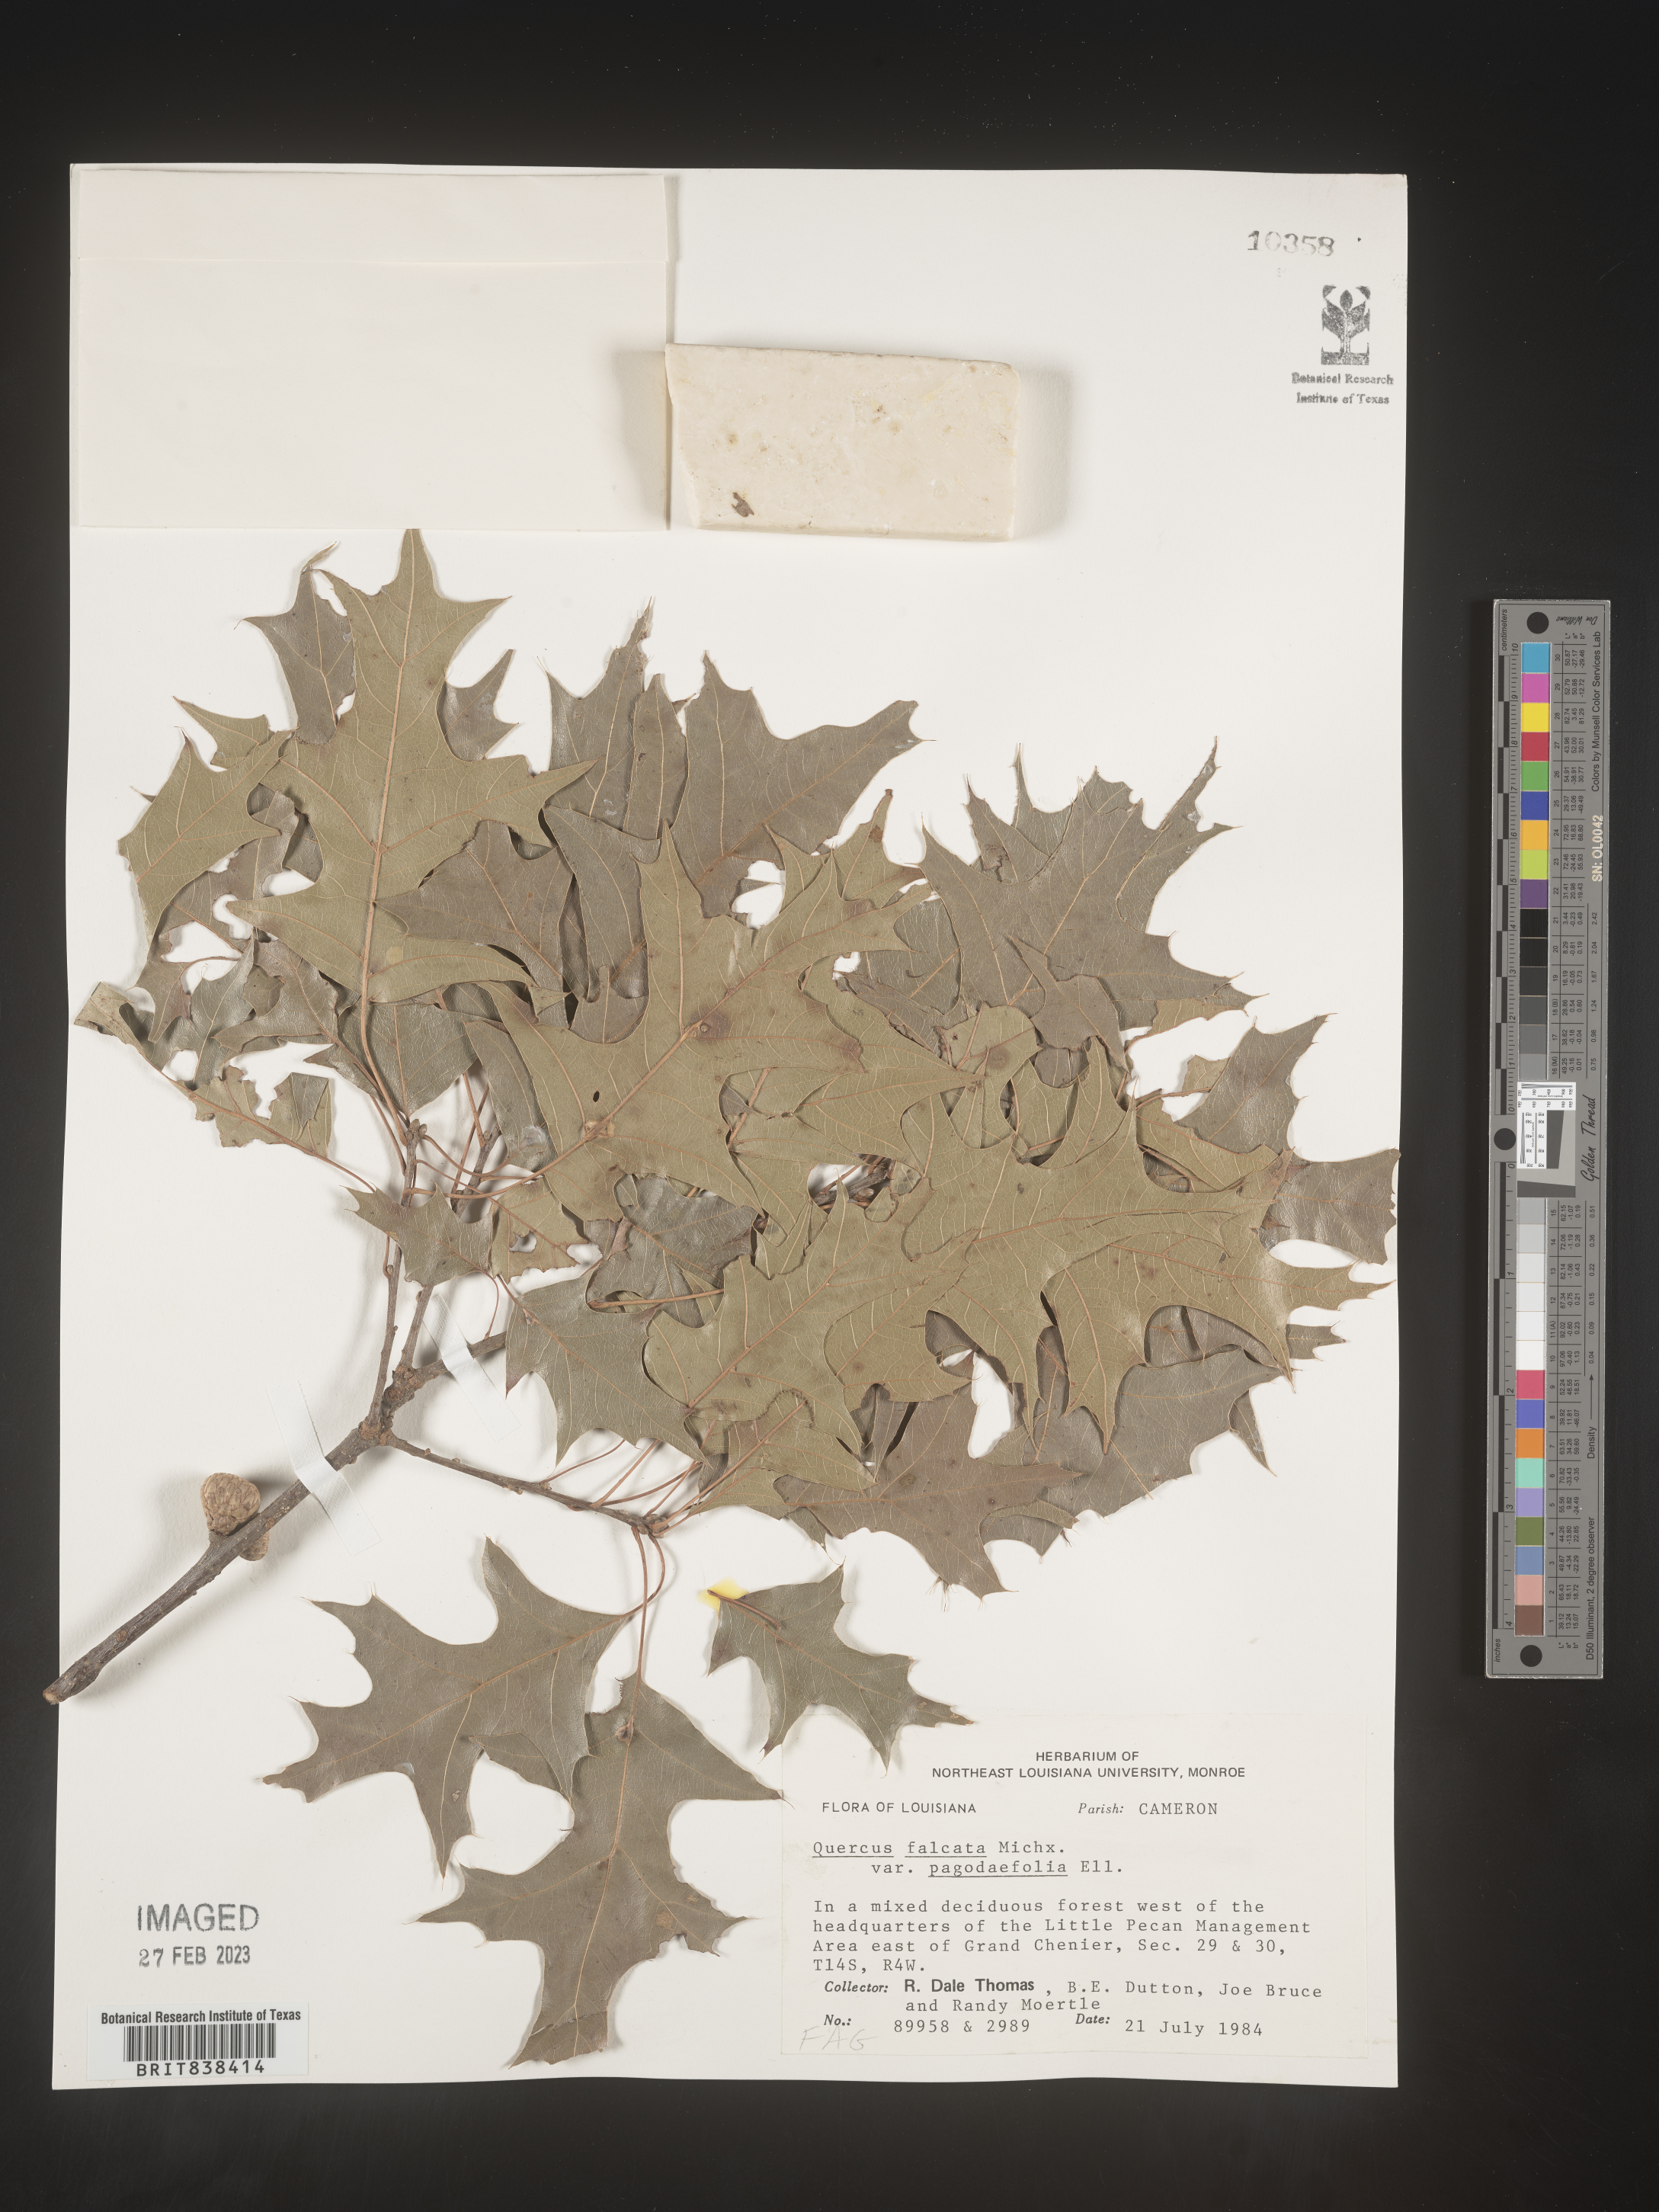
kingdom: Plantae
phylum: Tracheophyta
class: Magnoliopsida
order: Fagales
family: Fagaceae
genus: Quercus
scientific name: Quercus falcata
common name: Southern red oak
